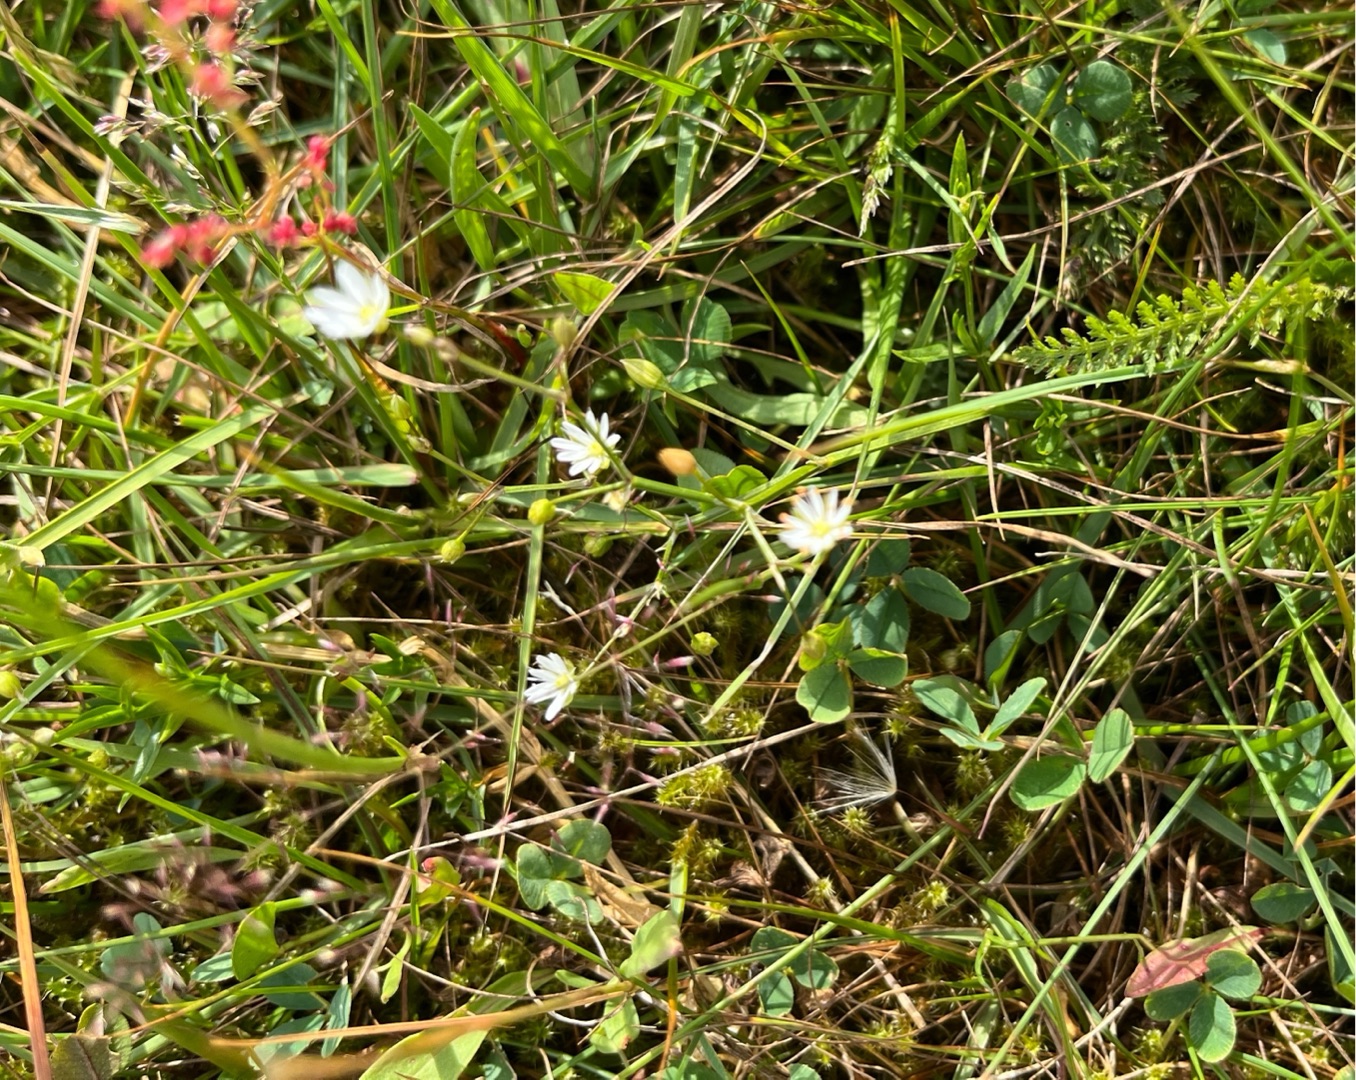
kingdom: Plantae
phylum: Tracheophyta
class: Magnoliopsida
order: Caryophyllales
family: Caryophyllaceae
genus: Stellaria
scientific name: Stellaria graminea
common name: Græsbladet fladstjerne
